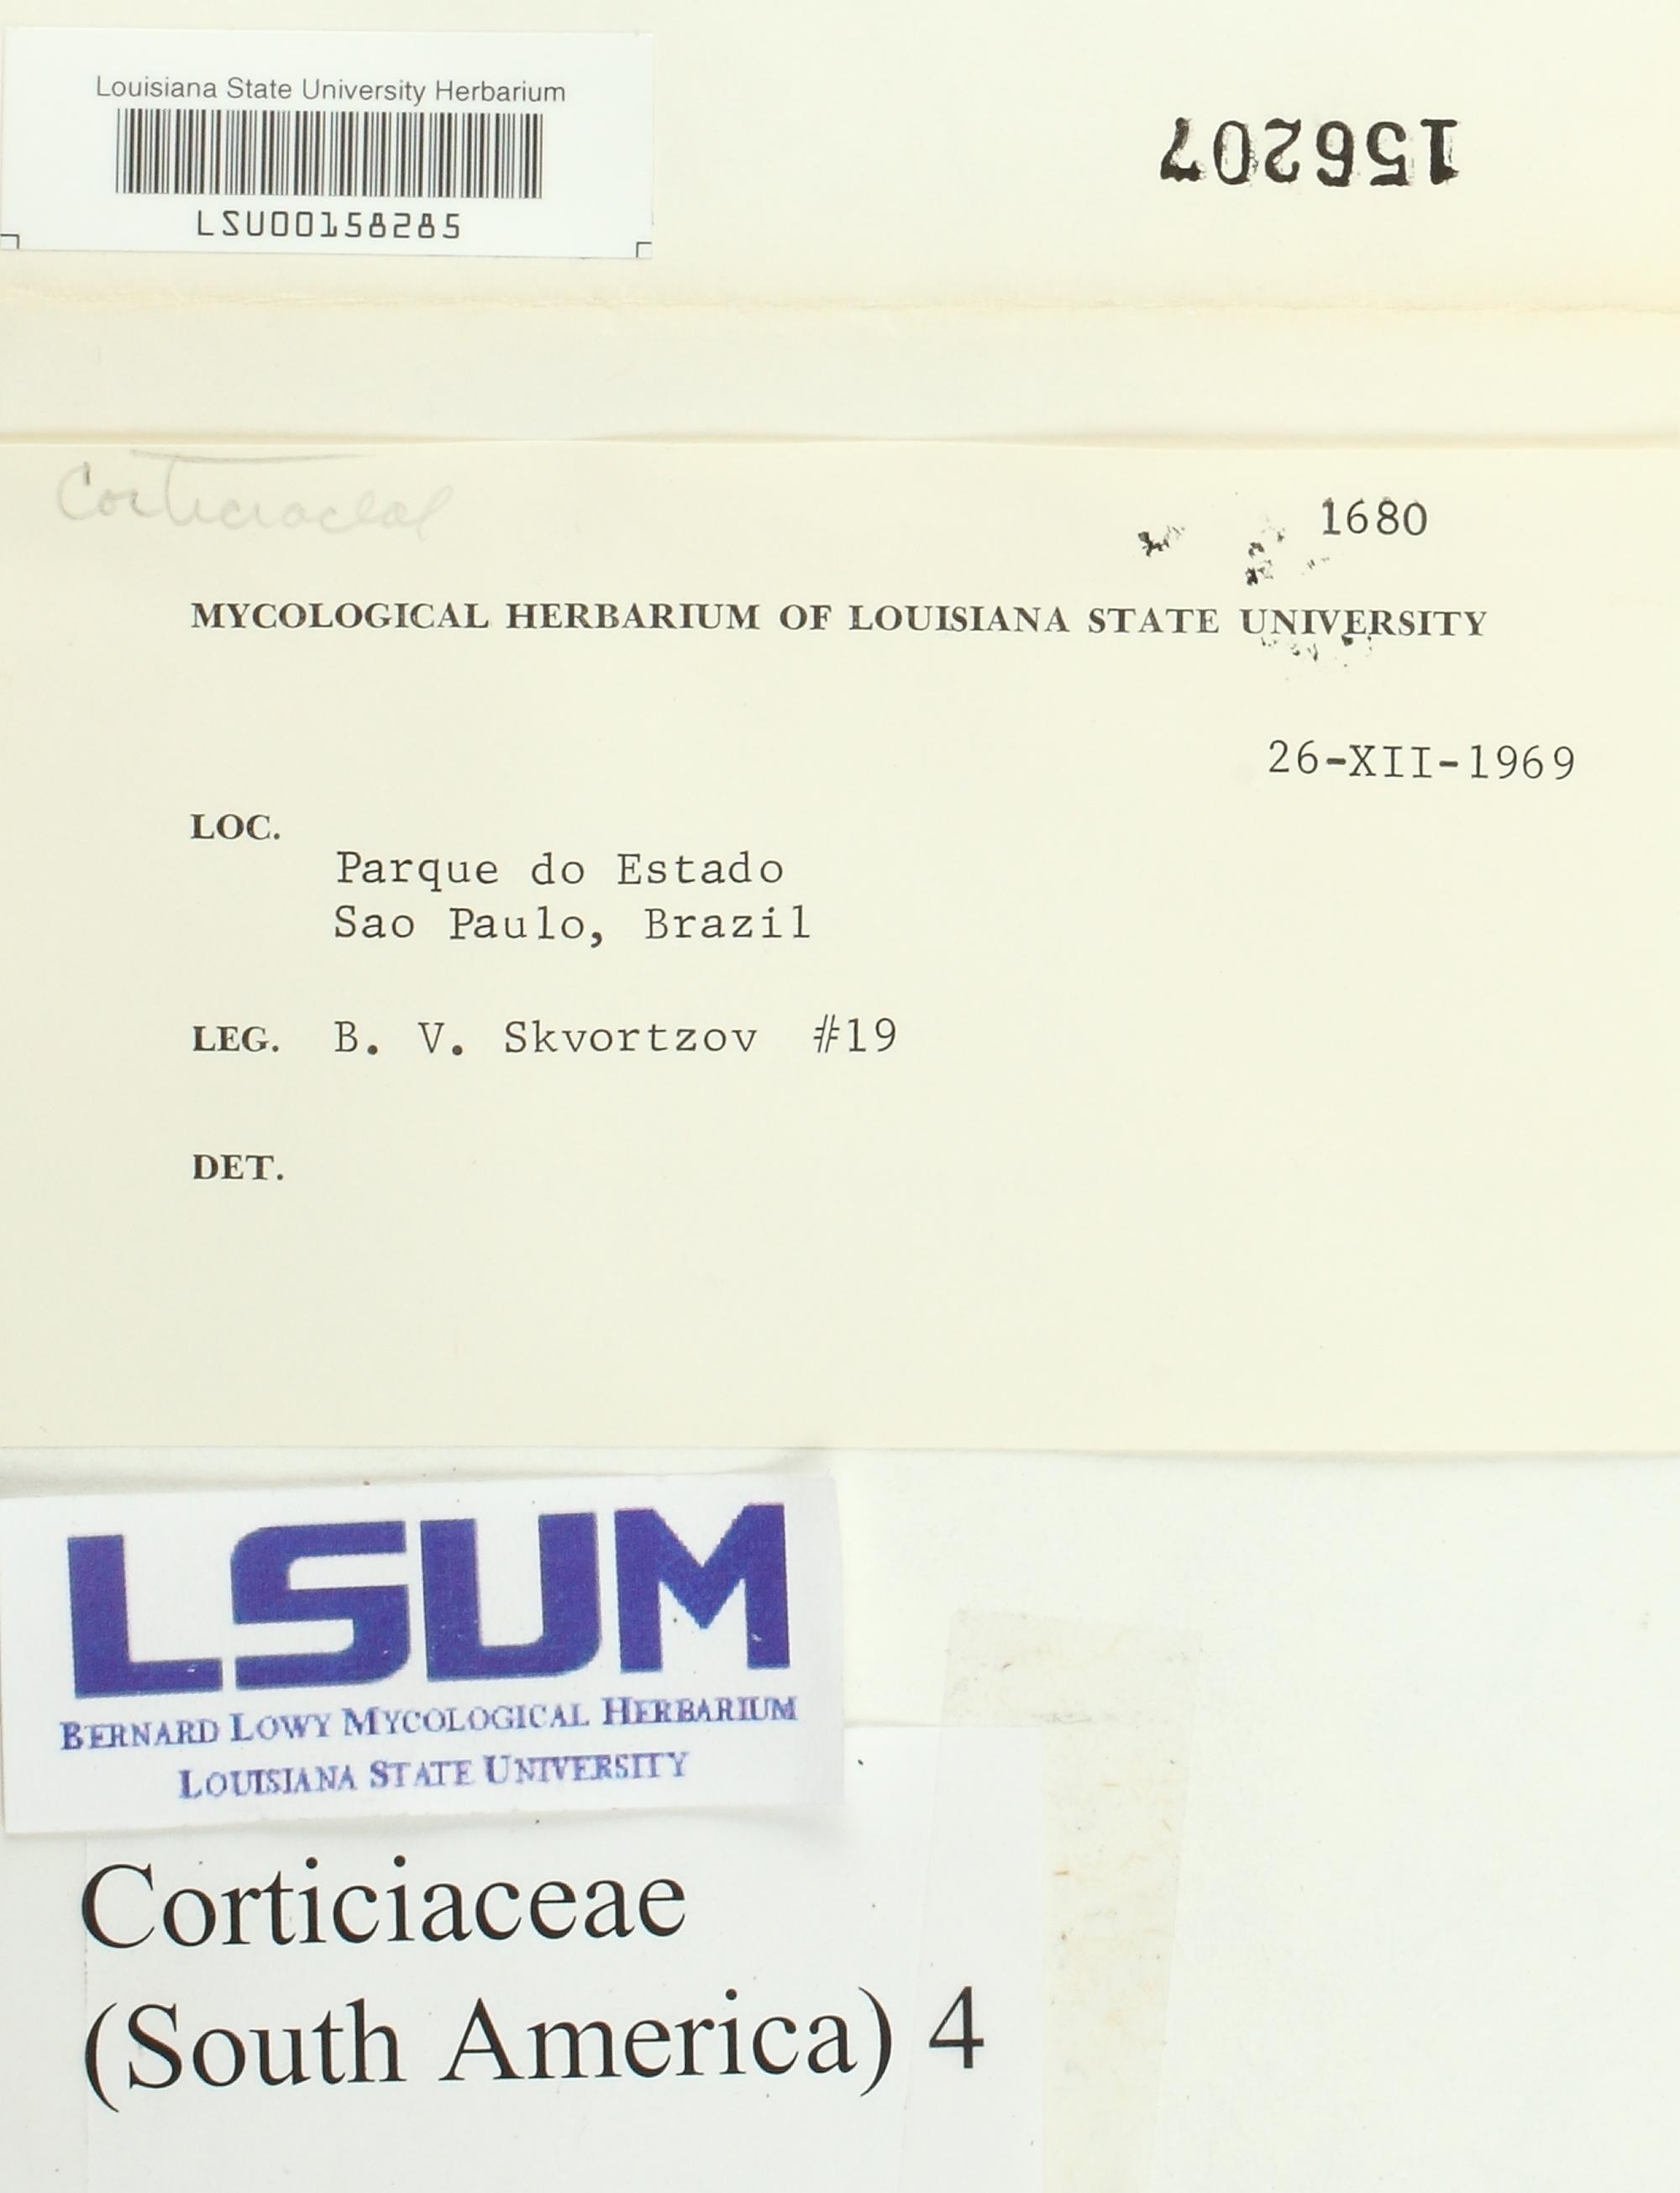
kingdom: Fungi
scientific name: Fungi
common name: Fungi
